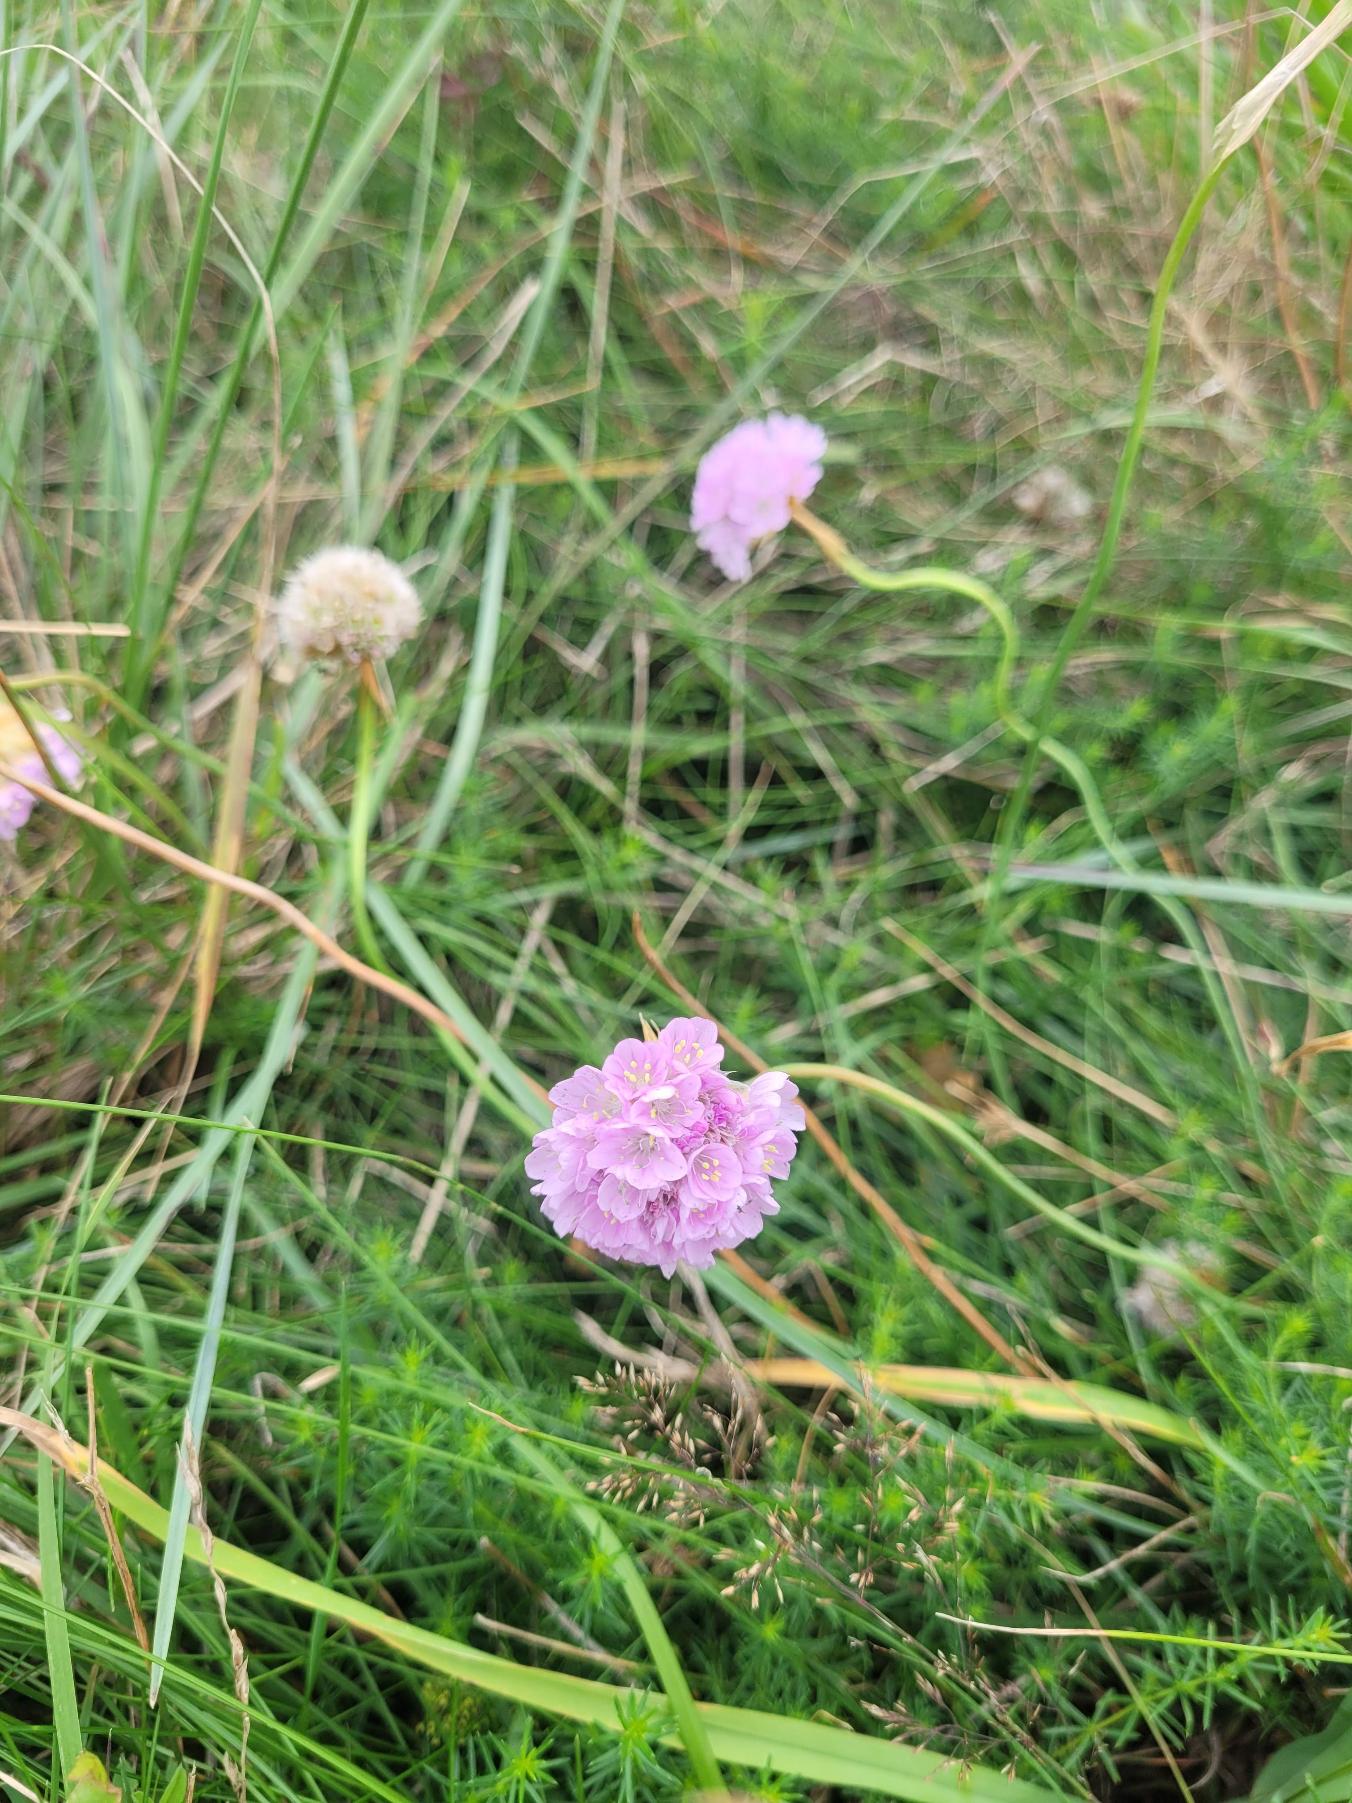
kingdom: Plantae
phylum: Tracheophyta
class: Magnoliopsida
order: Caryophyllales
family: Plumbaginaceae
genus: Armeria
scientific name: Armeria maritima
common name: Engelskgræs
